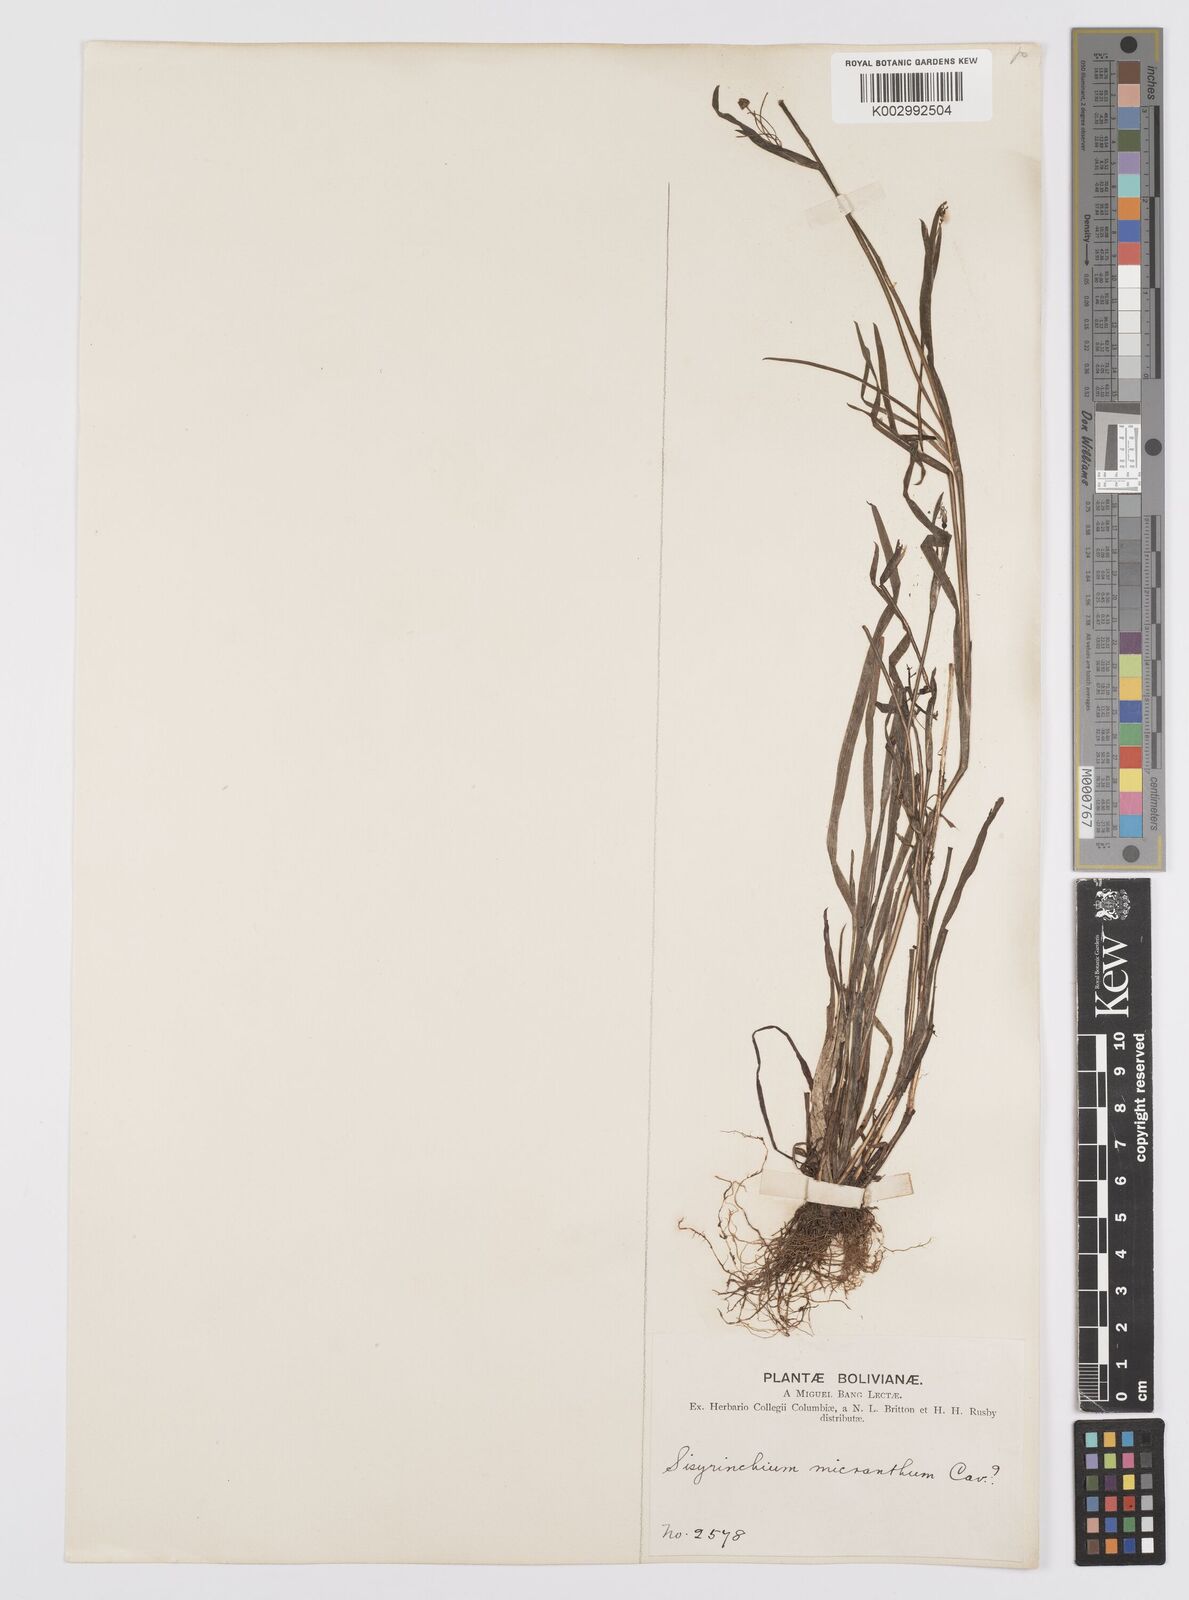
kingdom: Plantae
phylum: Tracheophyta
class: Liliopsida
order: Asparagales
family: Iridaceae
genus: Sisyrinchium
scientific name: Sisyrinchium micranthum
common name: Bermuda pigroot
